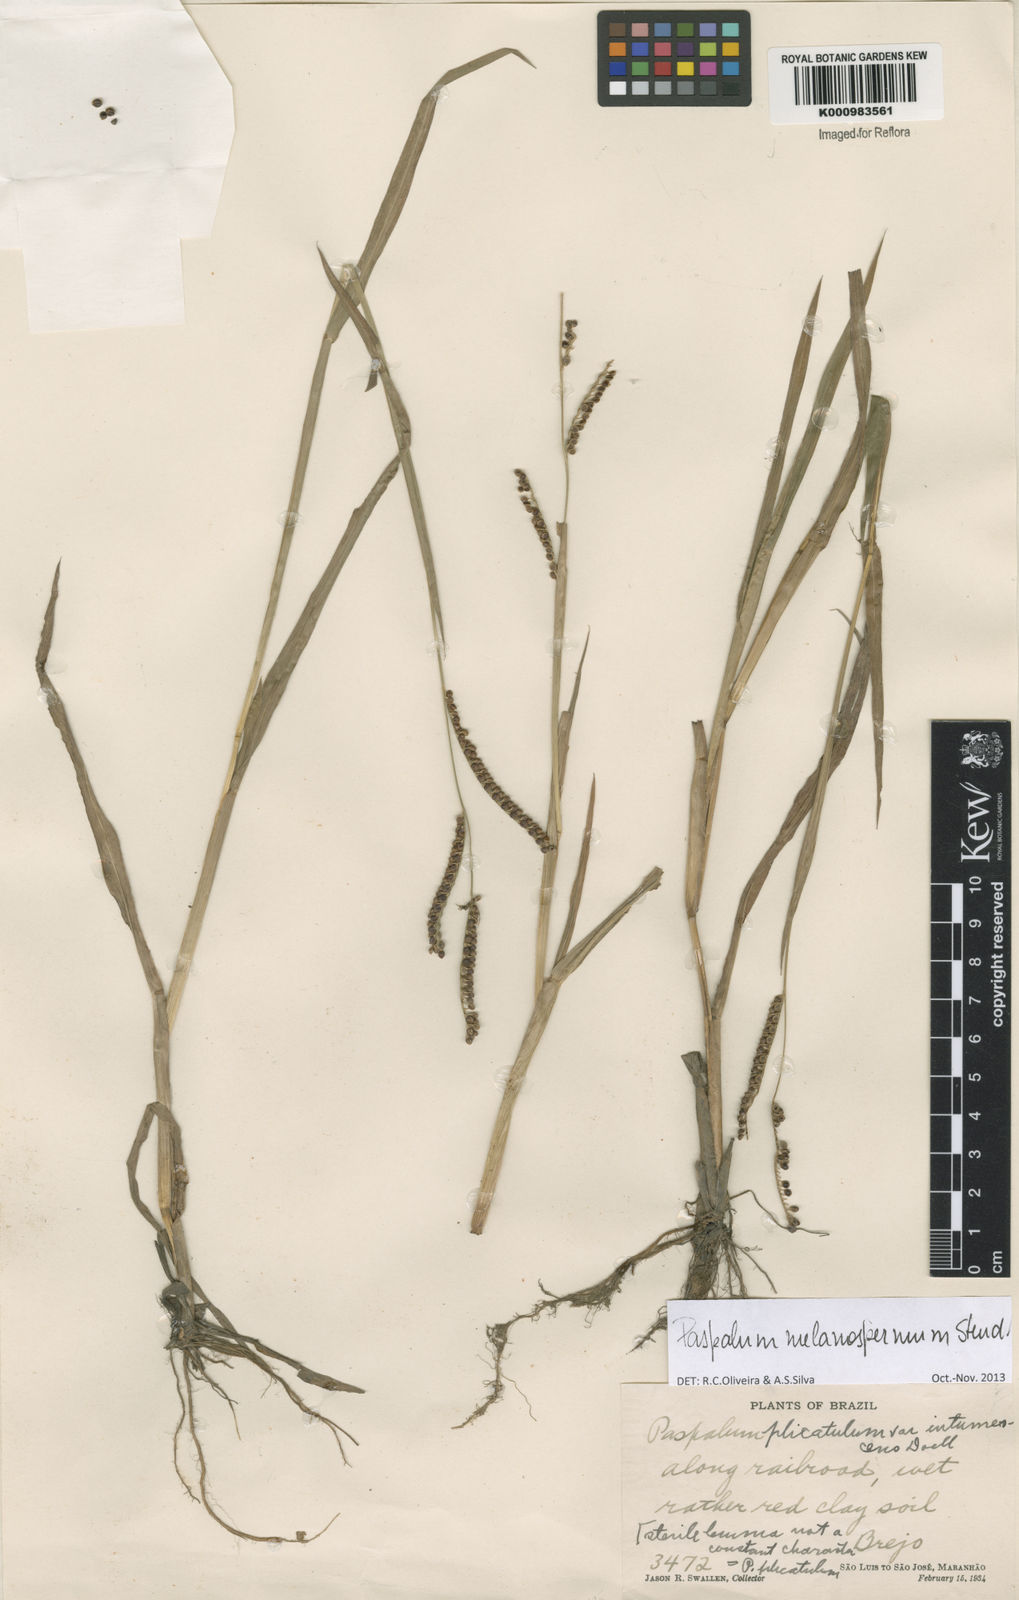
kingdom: Plantae
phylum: Tracheophyta
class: Liliopsida
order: Poales
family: Poaceae
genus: Paspalum
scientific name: Paspalum melanospermum
